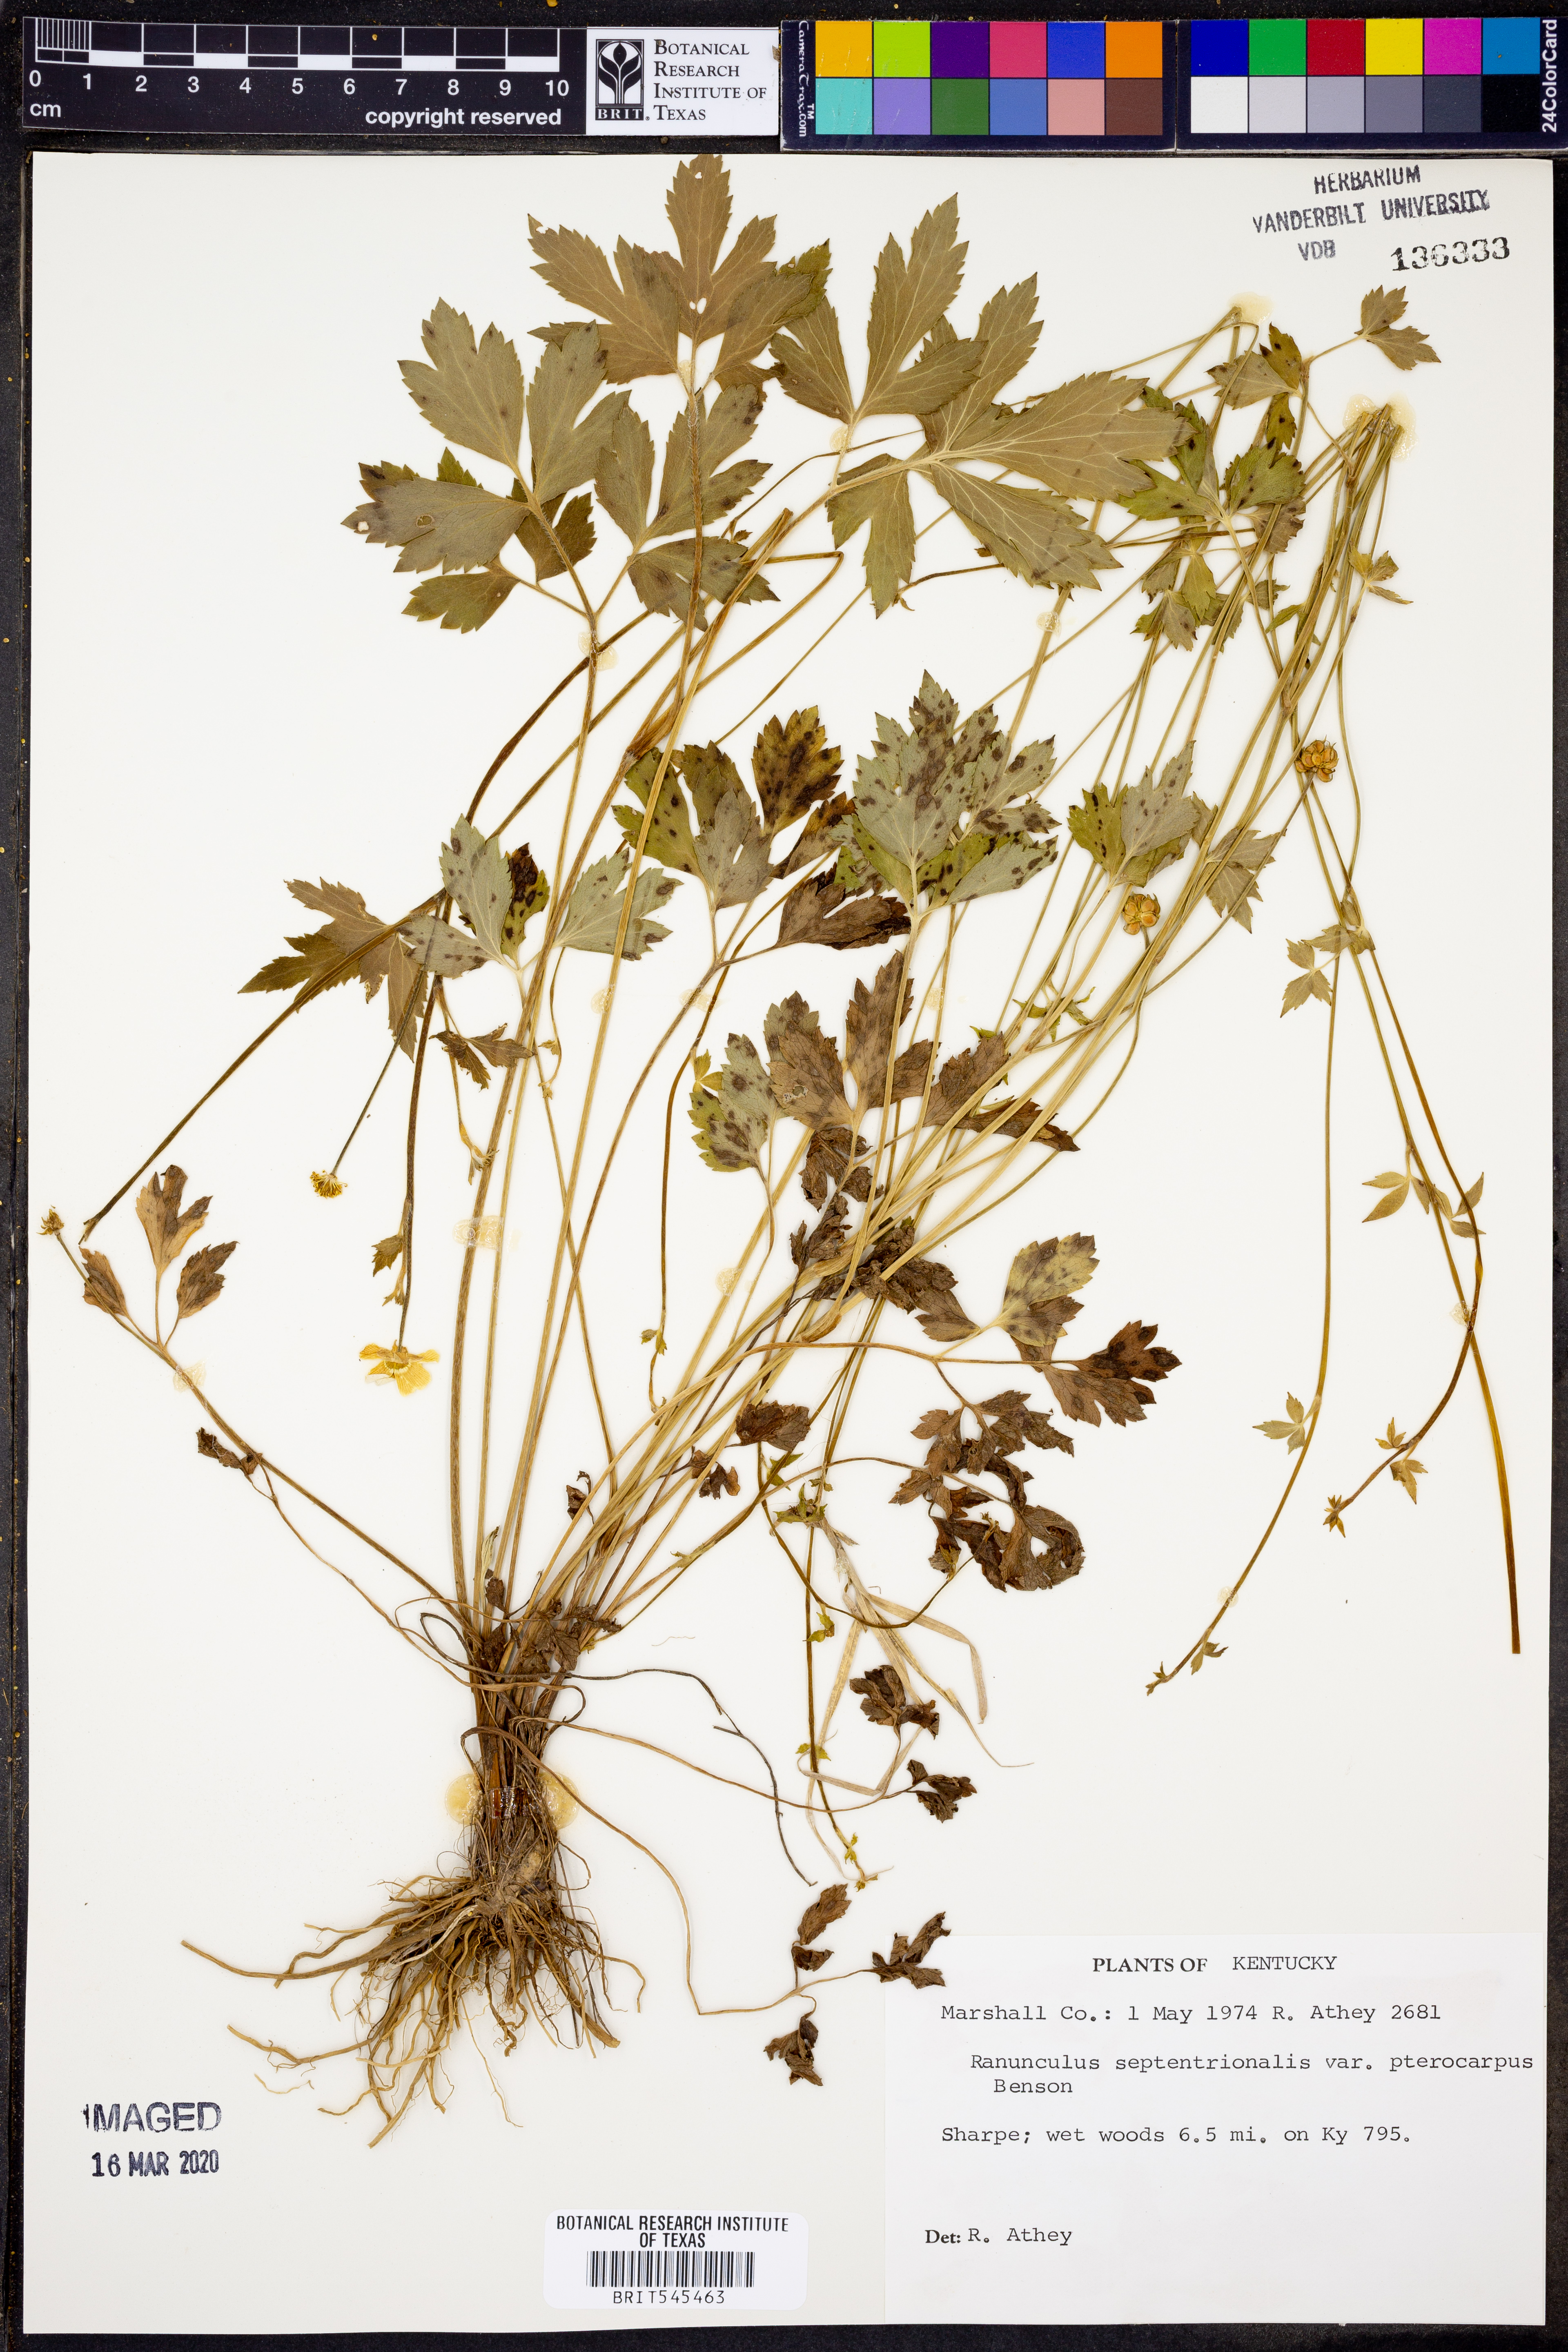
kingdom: Plantae
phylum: Tracheophyta
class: Magnoliopsida
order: Ranunculales
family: Ranunculaceae
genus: Ranunculus
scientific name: Ranunculus hispidus
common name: Bristly buttercup
